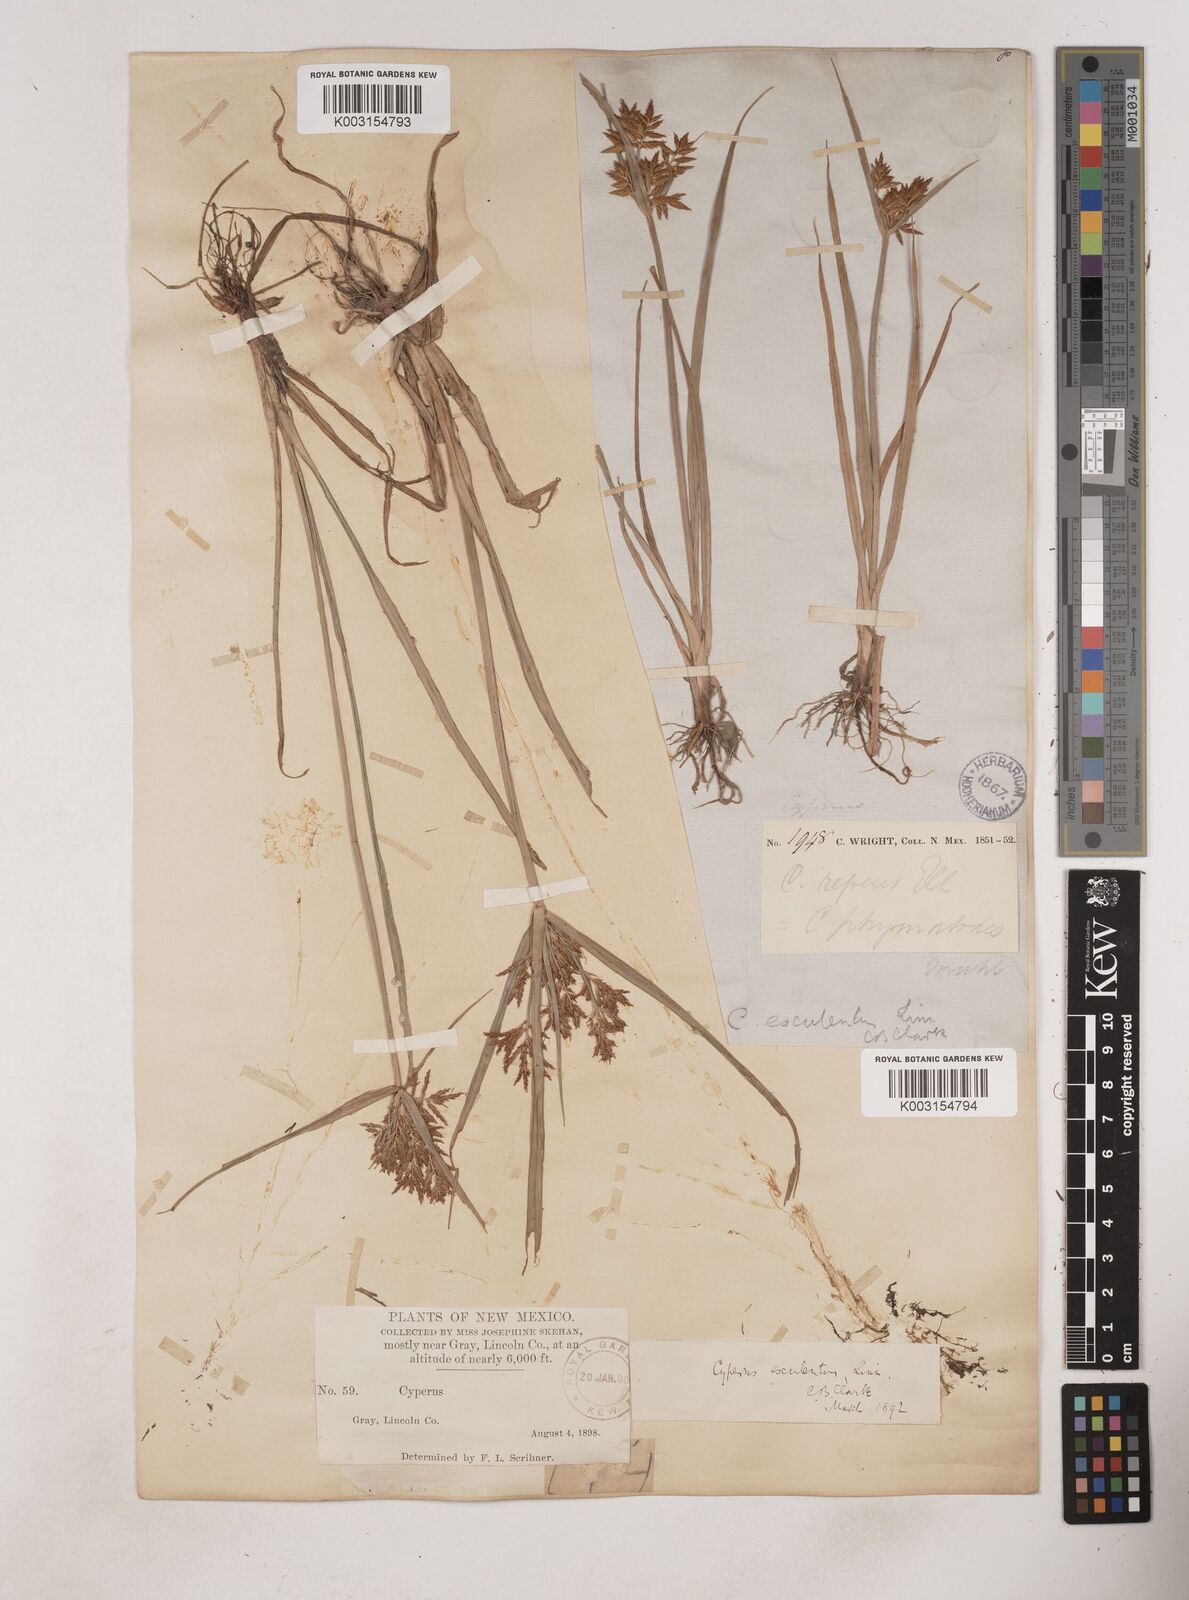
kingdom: Plantae
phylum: Tracheophyta
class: Liliopsida
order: Poales
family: Cyperaceae
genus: Cyperus
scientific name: Cyperus esculentus
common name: Yellow nutsedge
